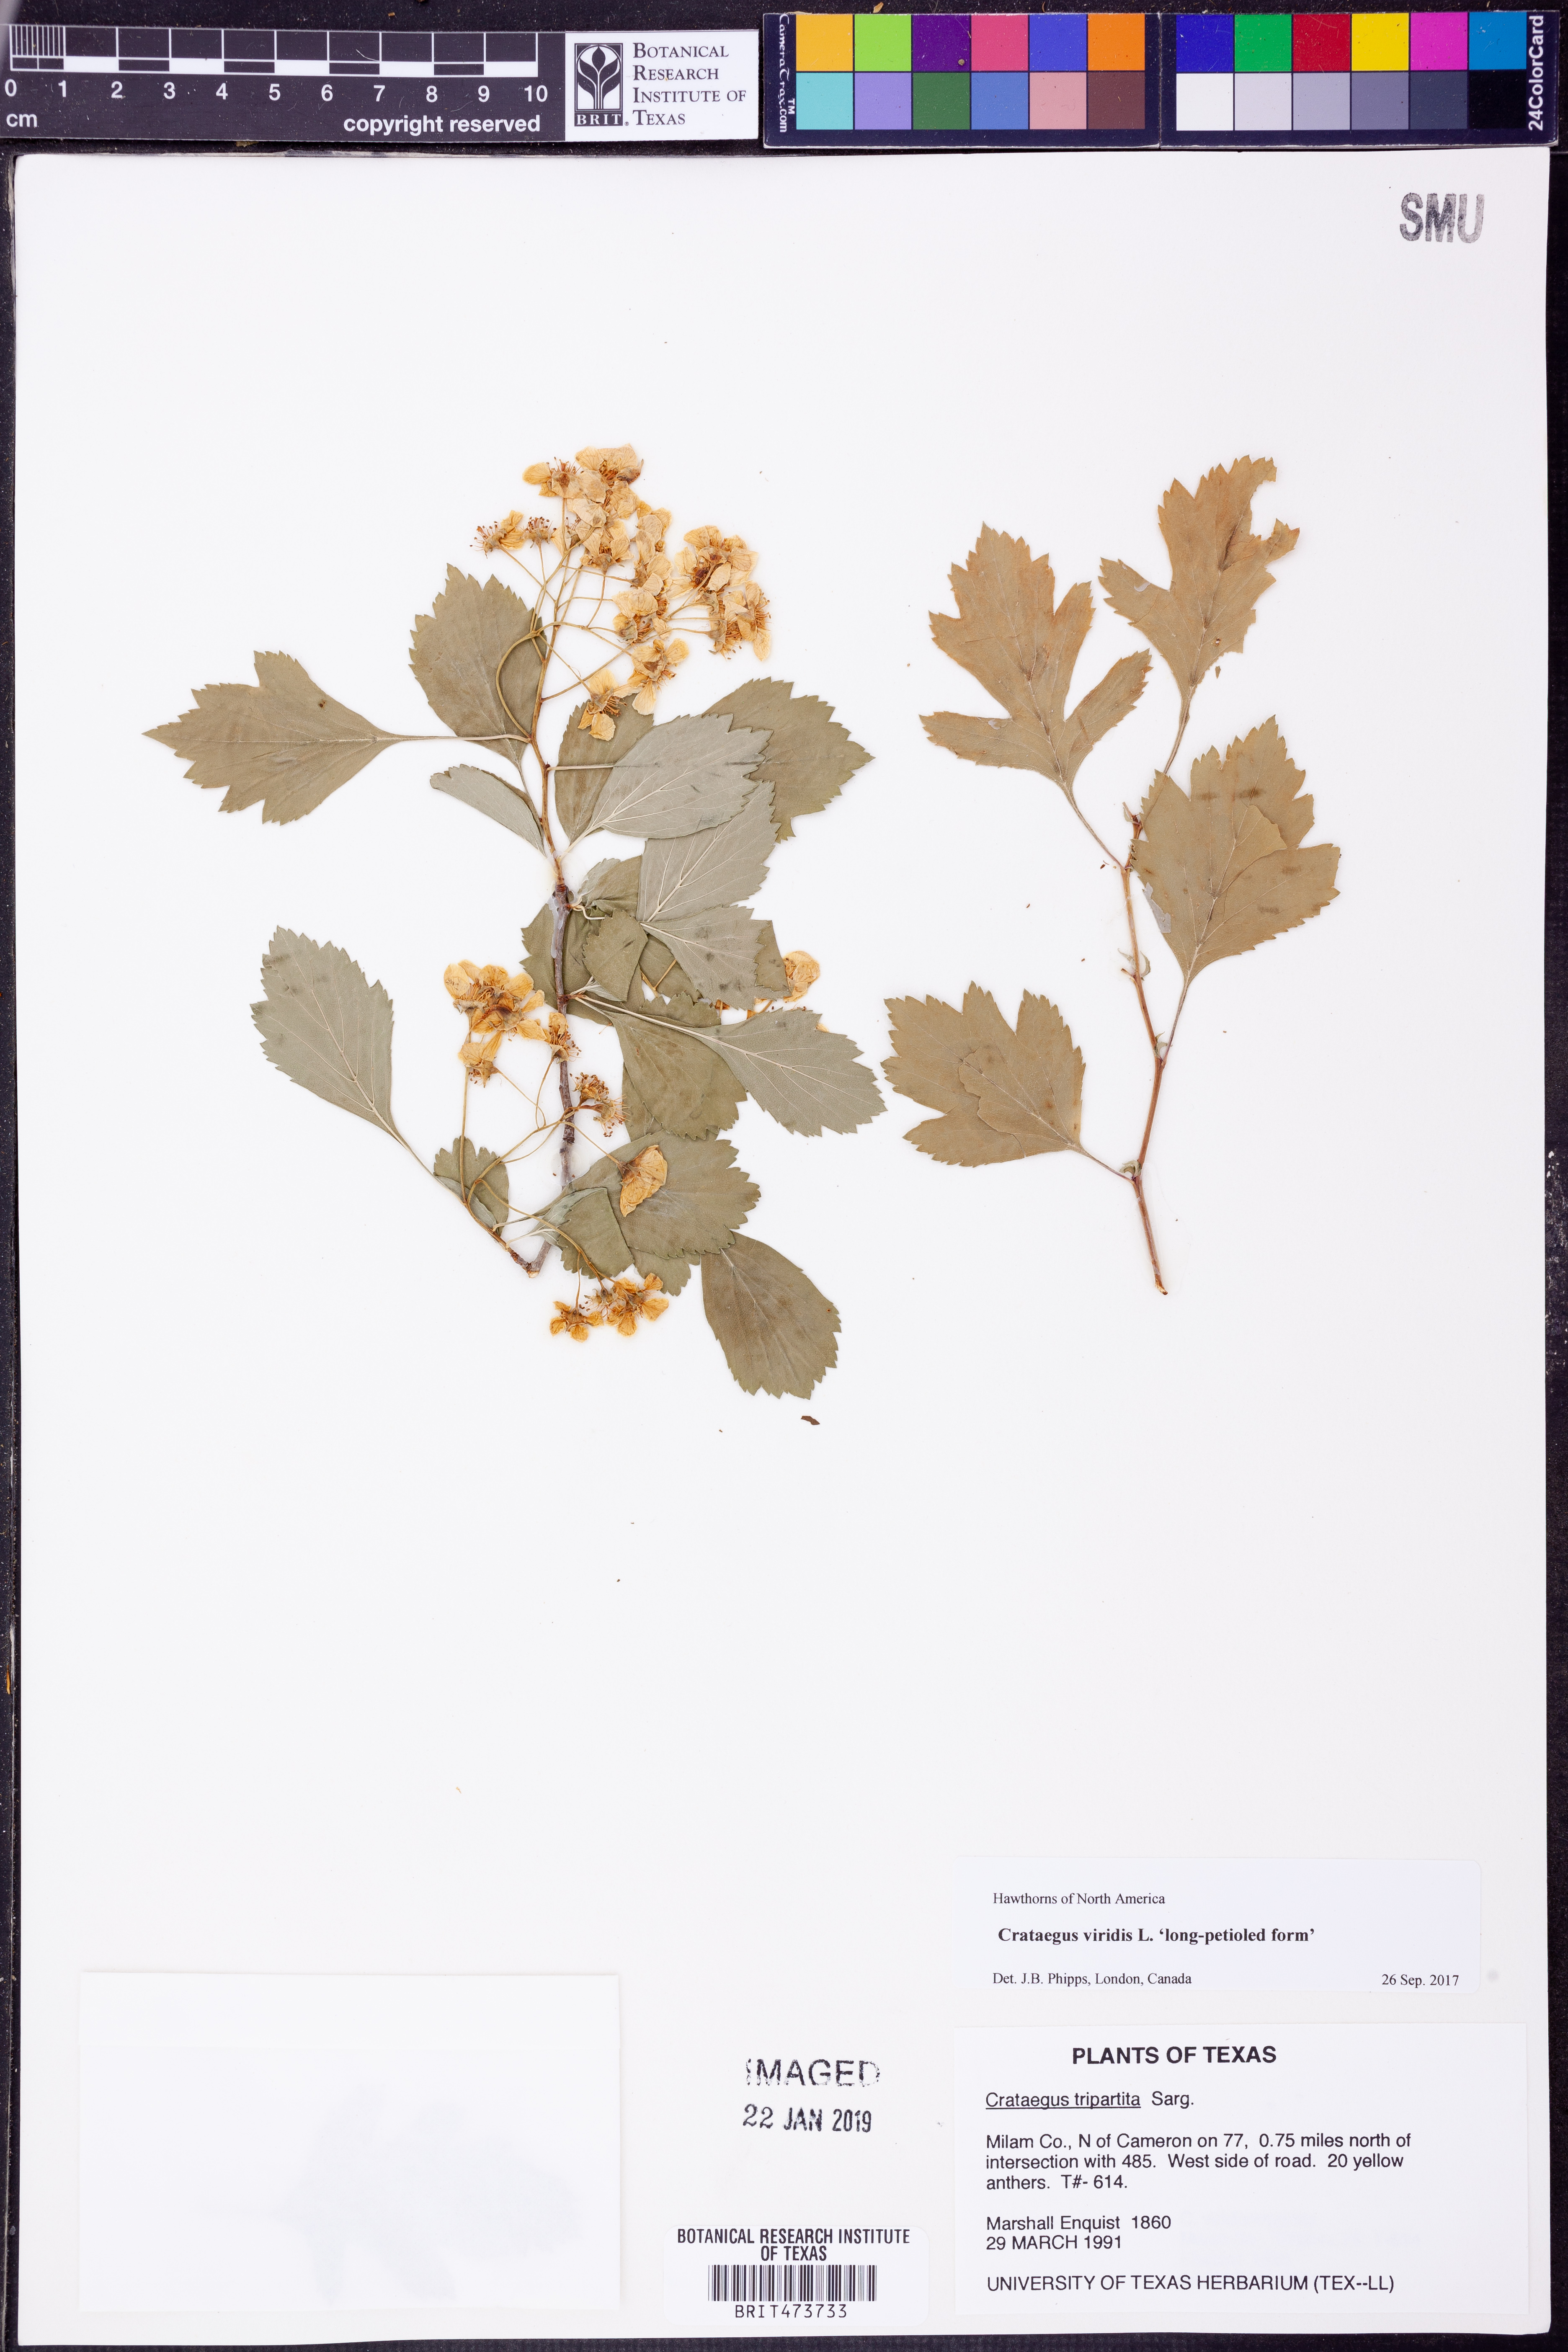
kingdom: Plantae
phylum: Tracheophyta
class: Magnoliopsida
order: Rosales
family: Rosaceae
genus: Crataegus
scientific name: Crataegus viridis
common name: Southernthorn
